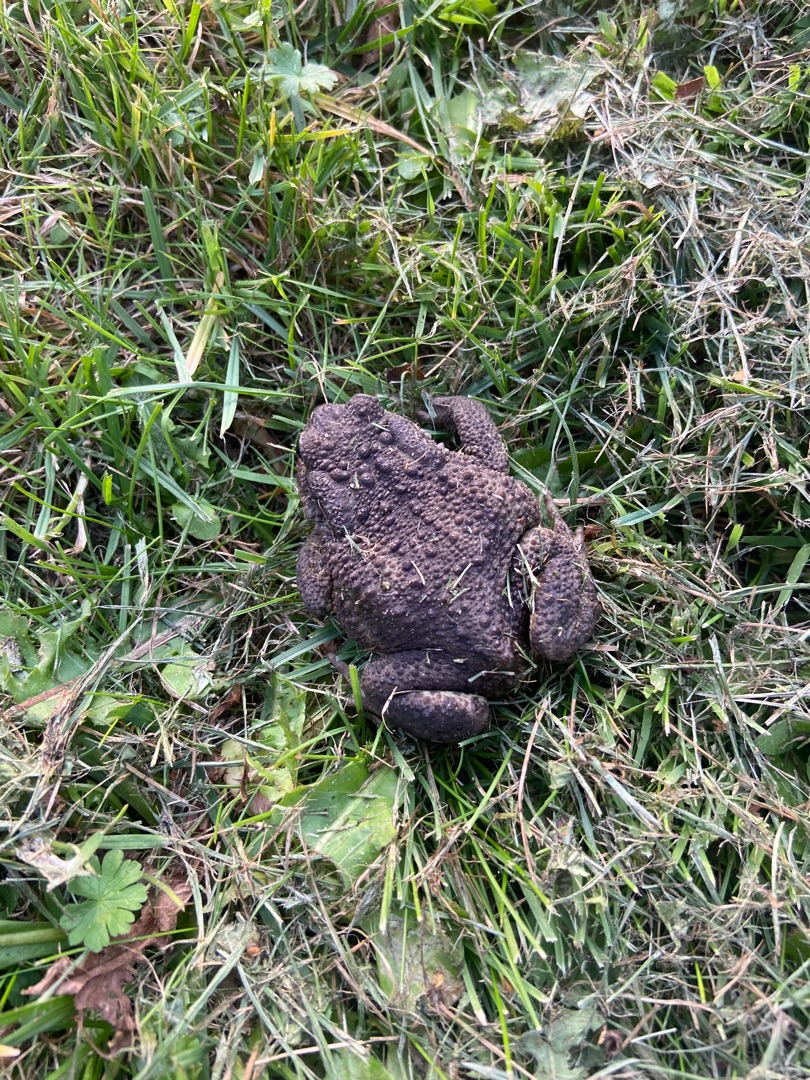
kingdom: Animalia
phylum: Chordata
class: Amphibia
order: Anura
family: Bufonidae
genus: Bufo
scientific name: Bufo bufo
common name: Skrubtudse
